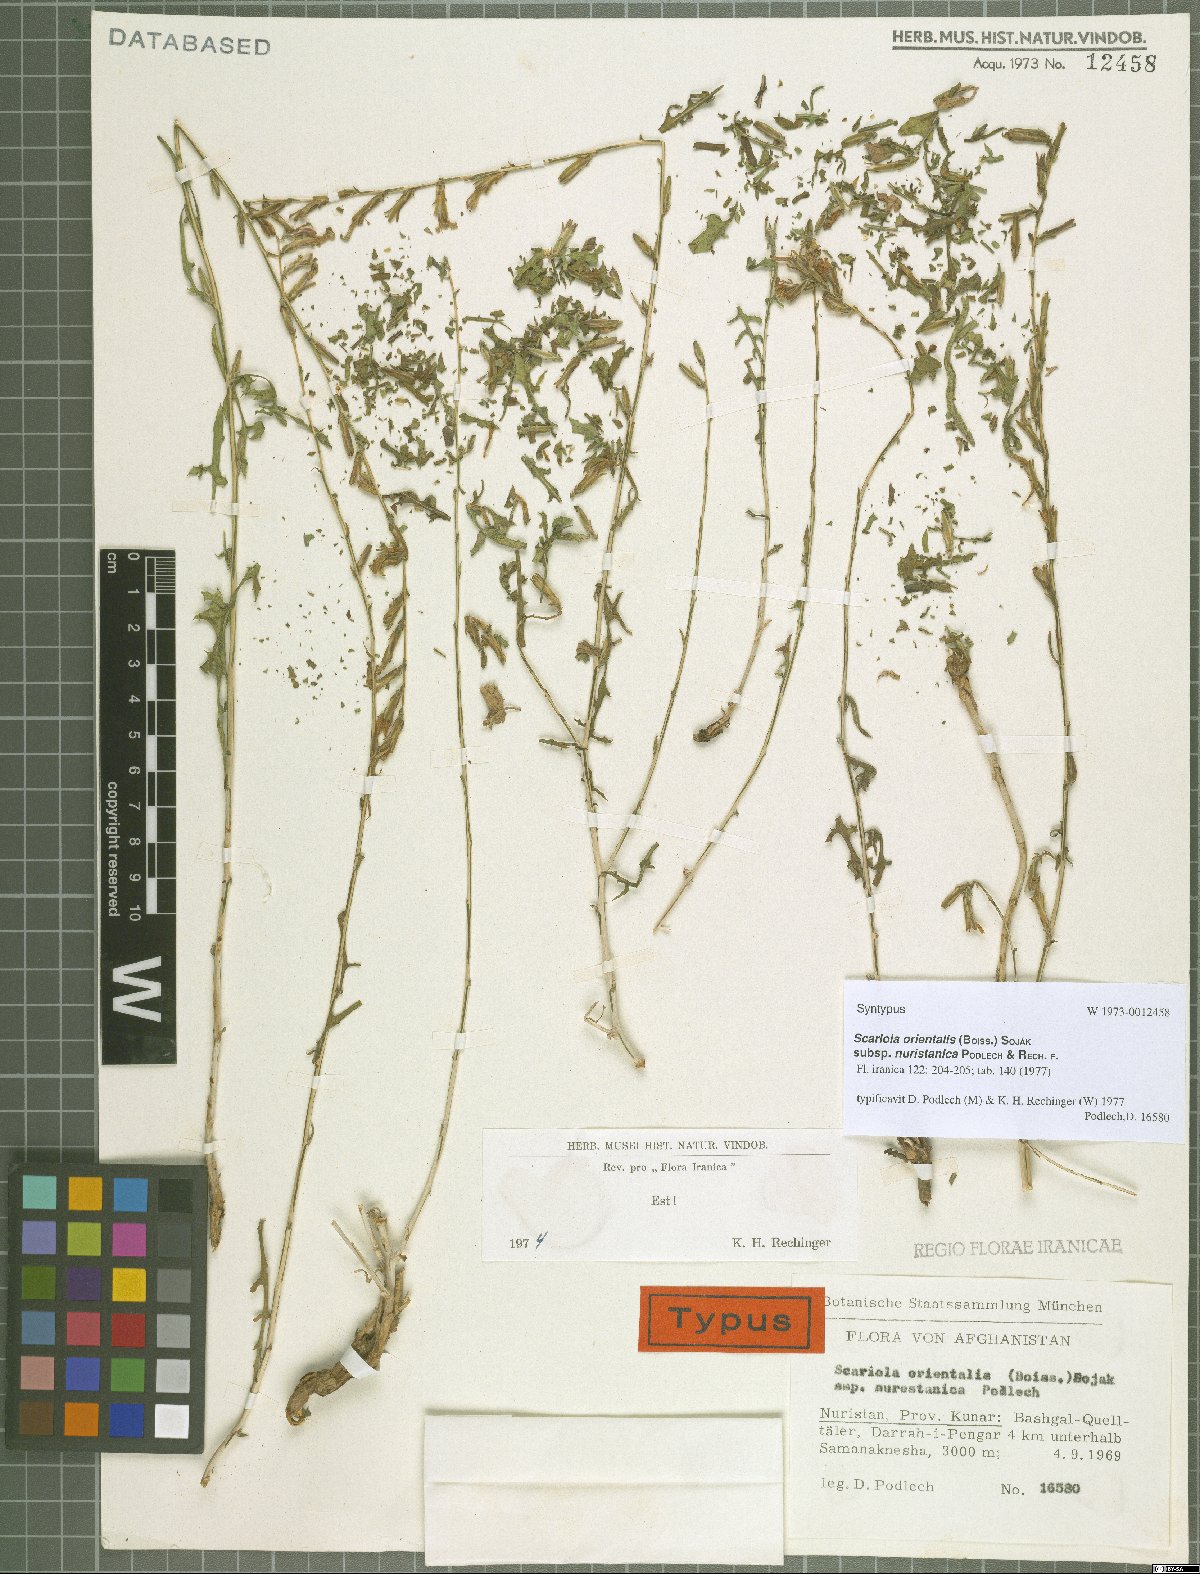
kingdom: Plantae
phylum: Tracheophyta
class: Magnoliopsida
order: Asterales
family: Asteraceae
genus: Lactuca
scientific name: Lactuca orientalis
